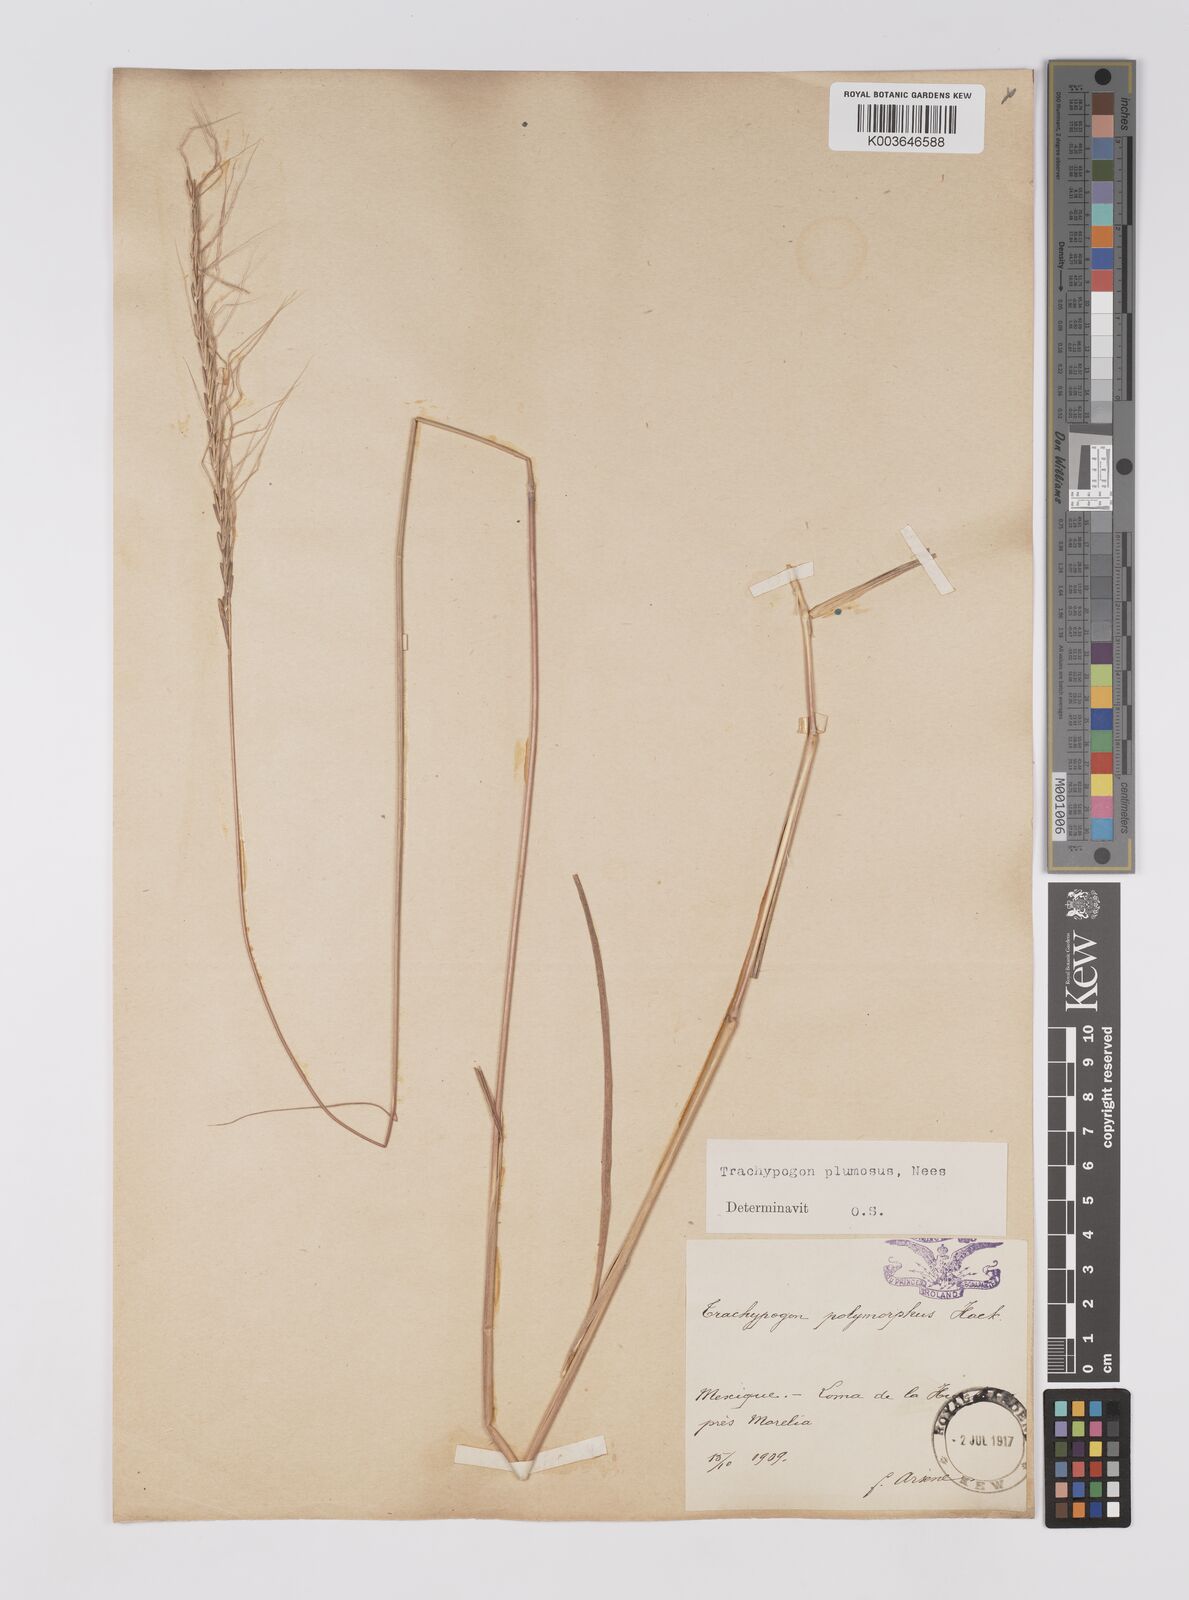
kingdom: Plantae
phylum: Tracheophyta
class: Liliopsida
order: Poales
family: Poaceae
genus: Trachypogon
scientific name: Trachypogon spicatus
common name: Crinkle-awn
